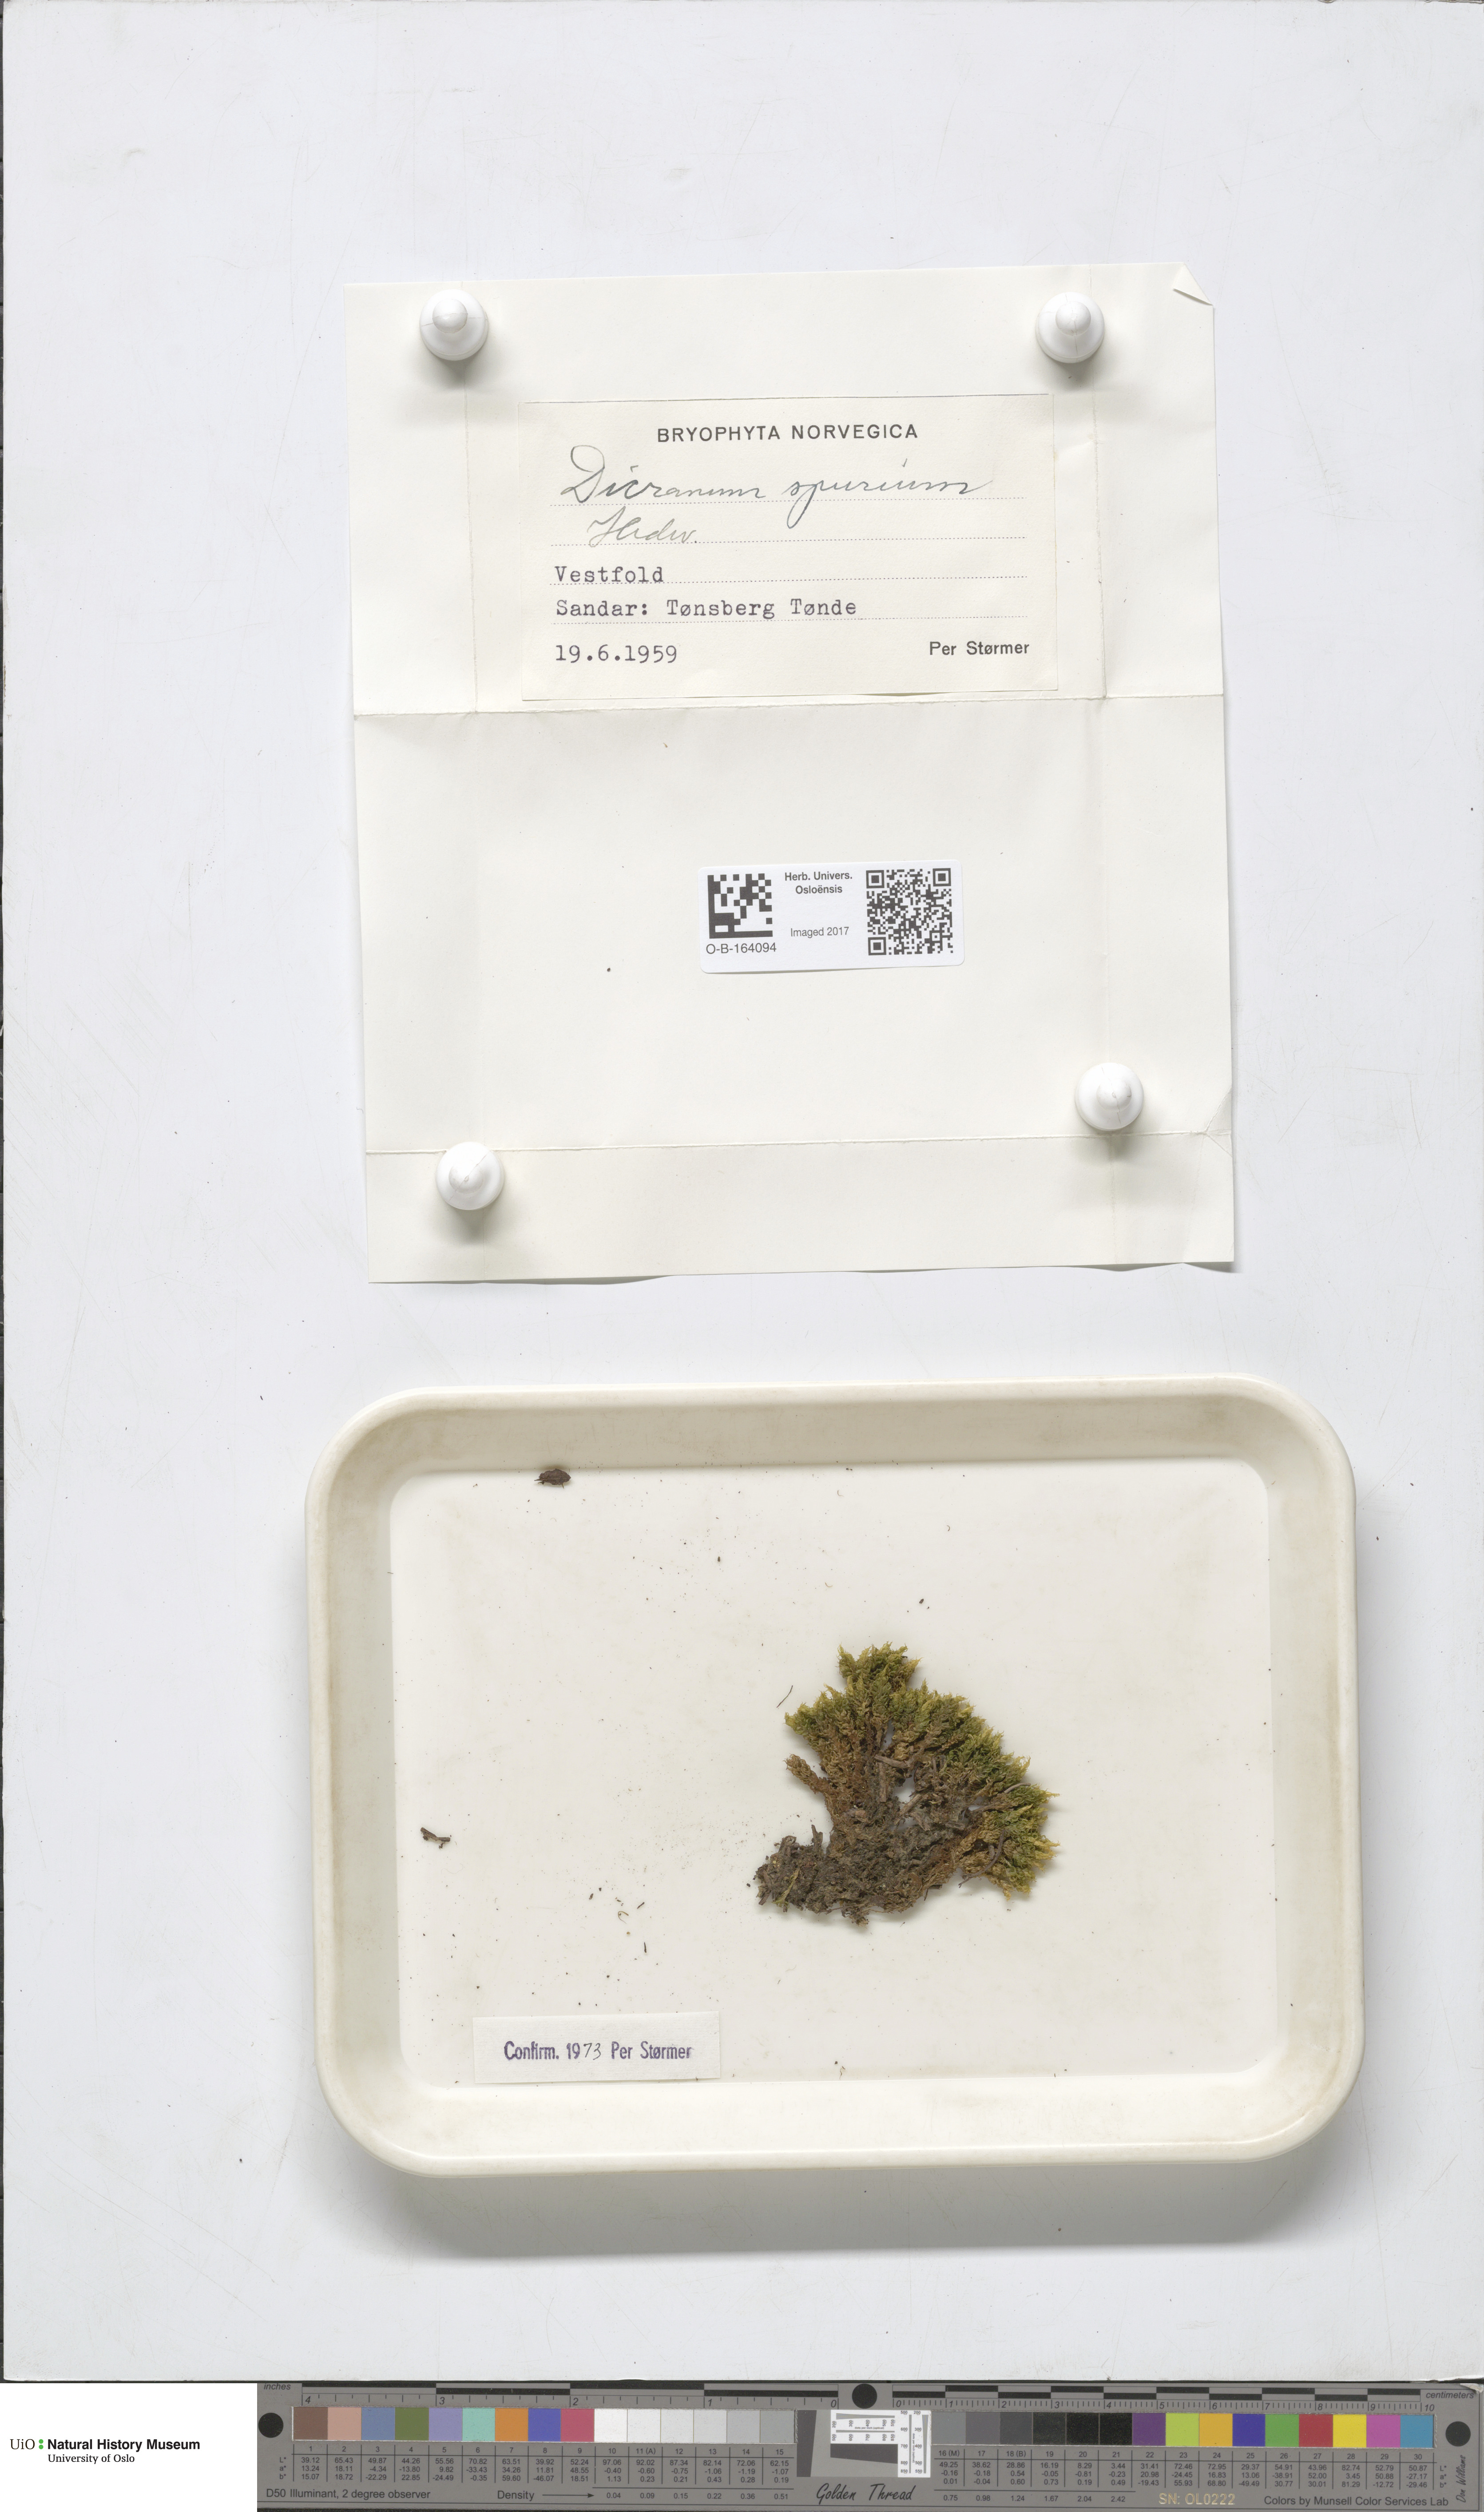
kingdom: Plantae
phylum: Bryophyta
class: Bryopsida
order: Dicranales
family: Dicranaceae
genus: Dicranum
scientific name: Dicranum spurium
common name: Spurred broom moss
